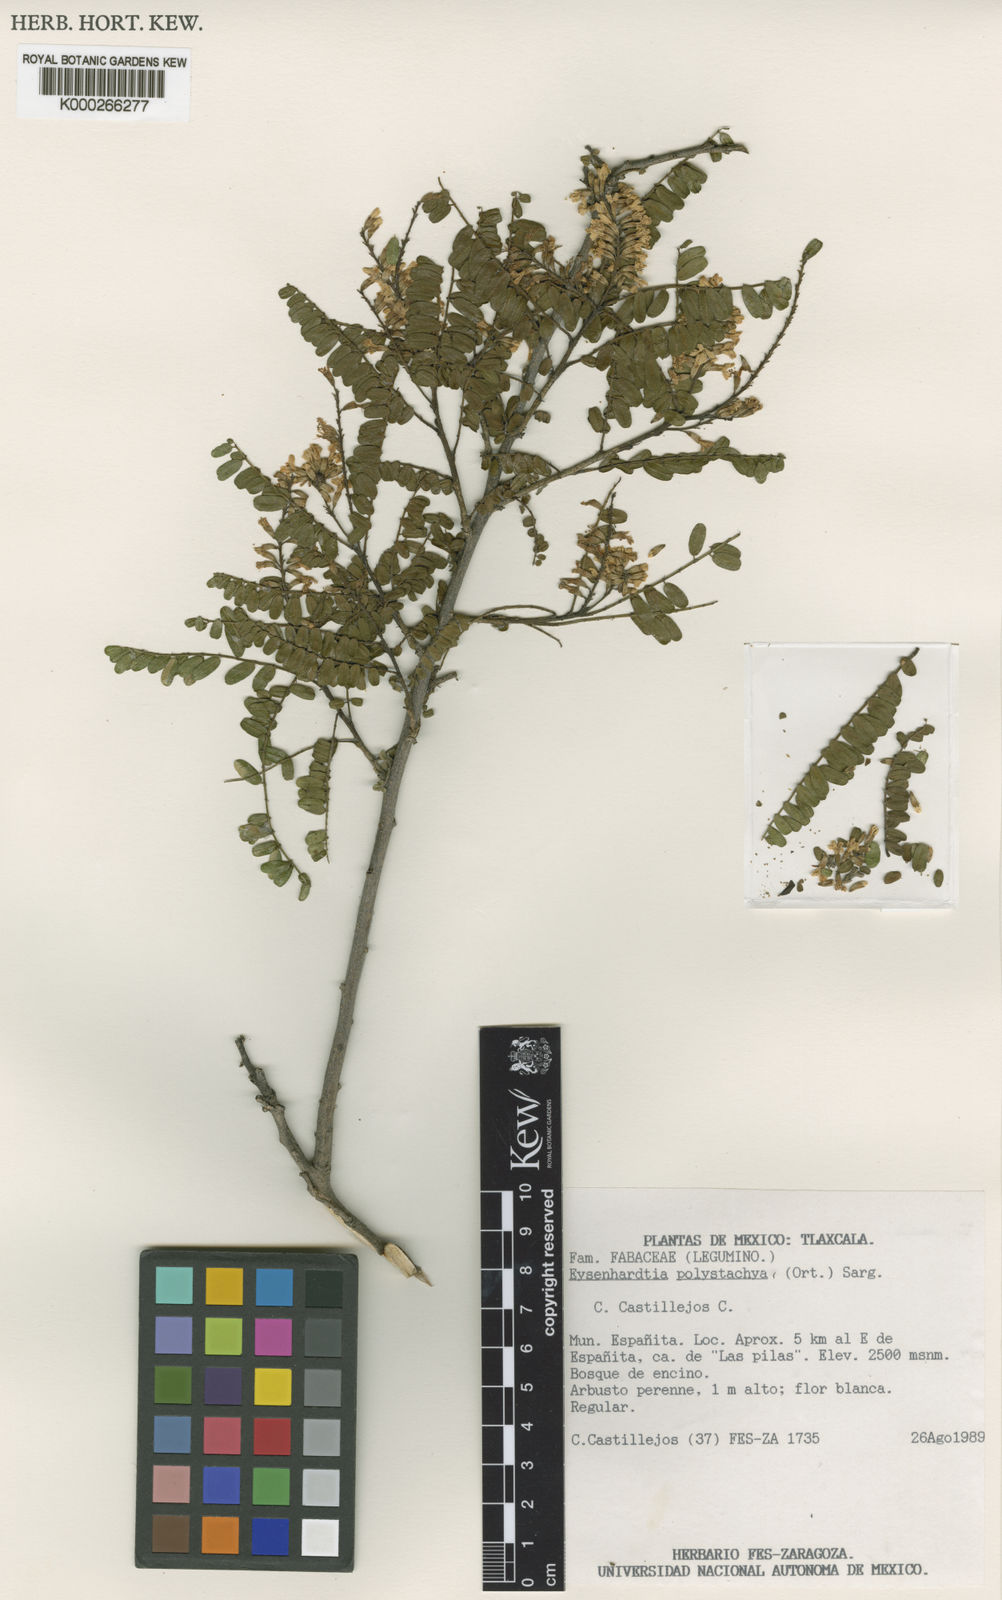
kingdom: Plantae
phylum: Tracheophyta
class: Magnoliopsida
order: Fabales
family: Fabaceae
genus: Eysenhardtia
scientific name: Eysenhardtia punctata
